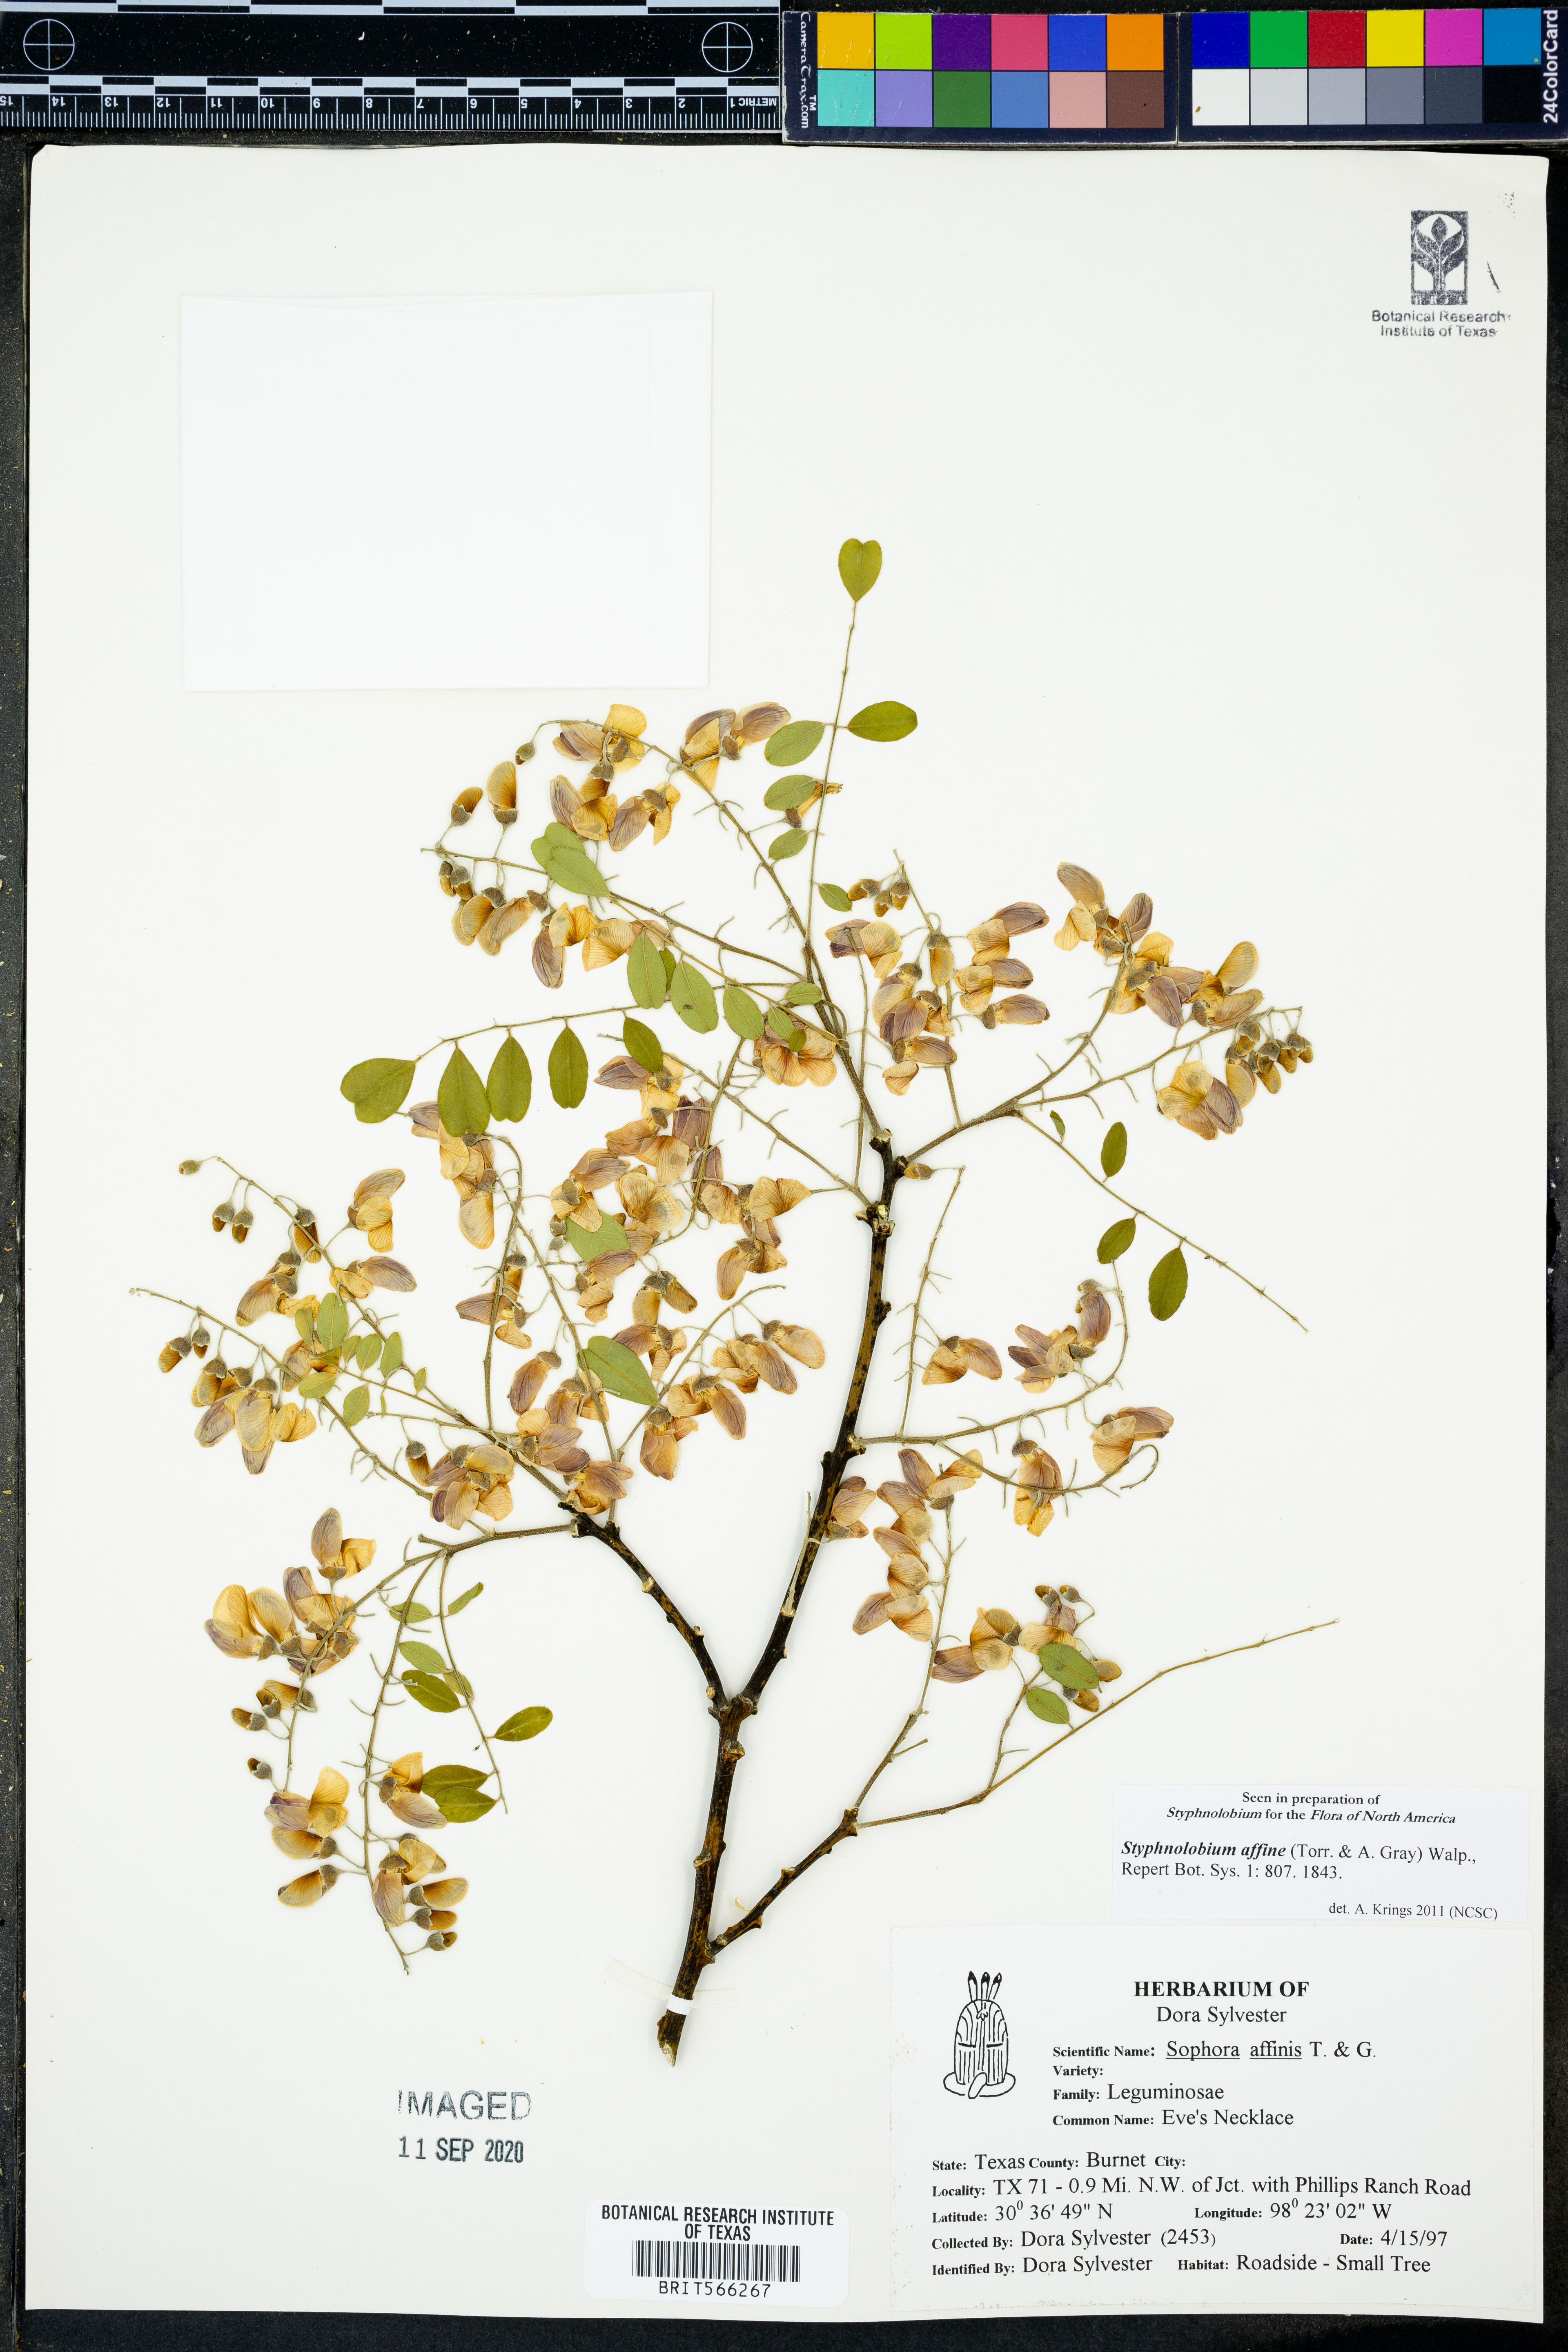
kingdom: Plantae
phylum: Tracheophyta
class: Magnoliopsida
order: Fabales
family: Fabaceae
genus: Styphnolobium
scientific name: Styphnolobium affine
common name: Texas sophora
